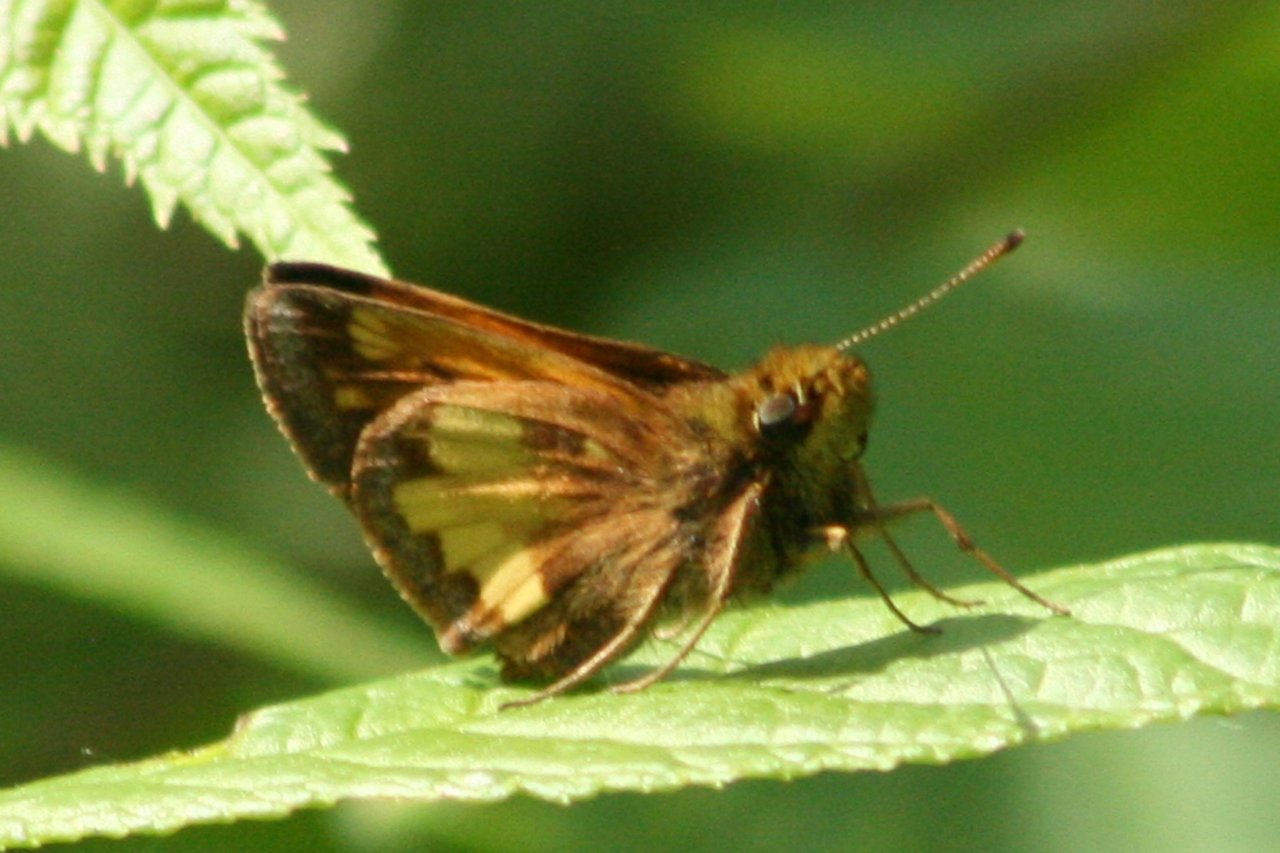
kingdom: Animalia
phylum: Arthropoda
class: Insecta
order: Lepidoptera
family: Hesperiidae
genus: Lon
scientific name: Lon hobomok
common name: Hobomok Skipper
